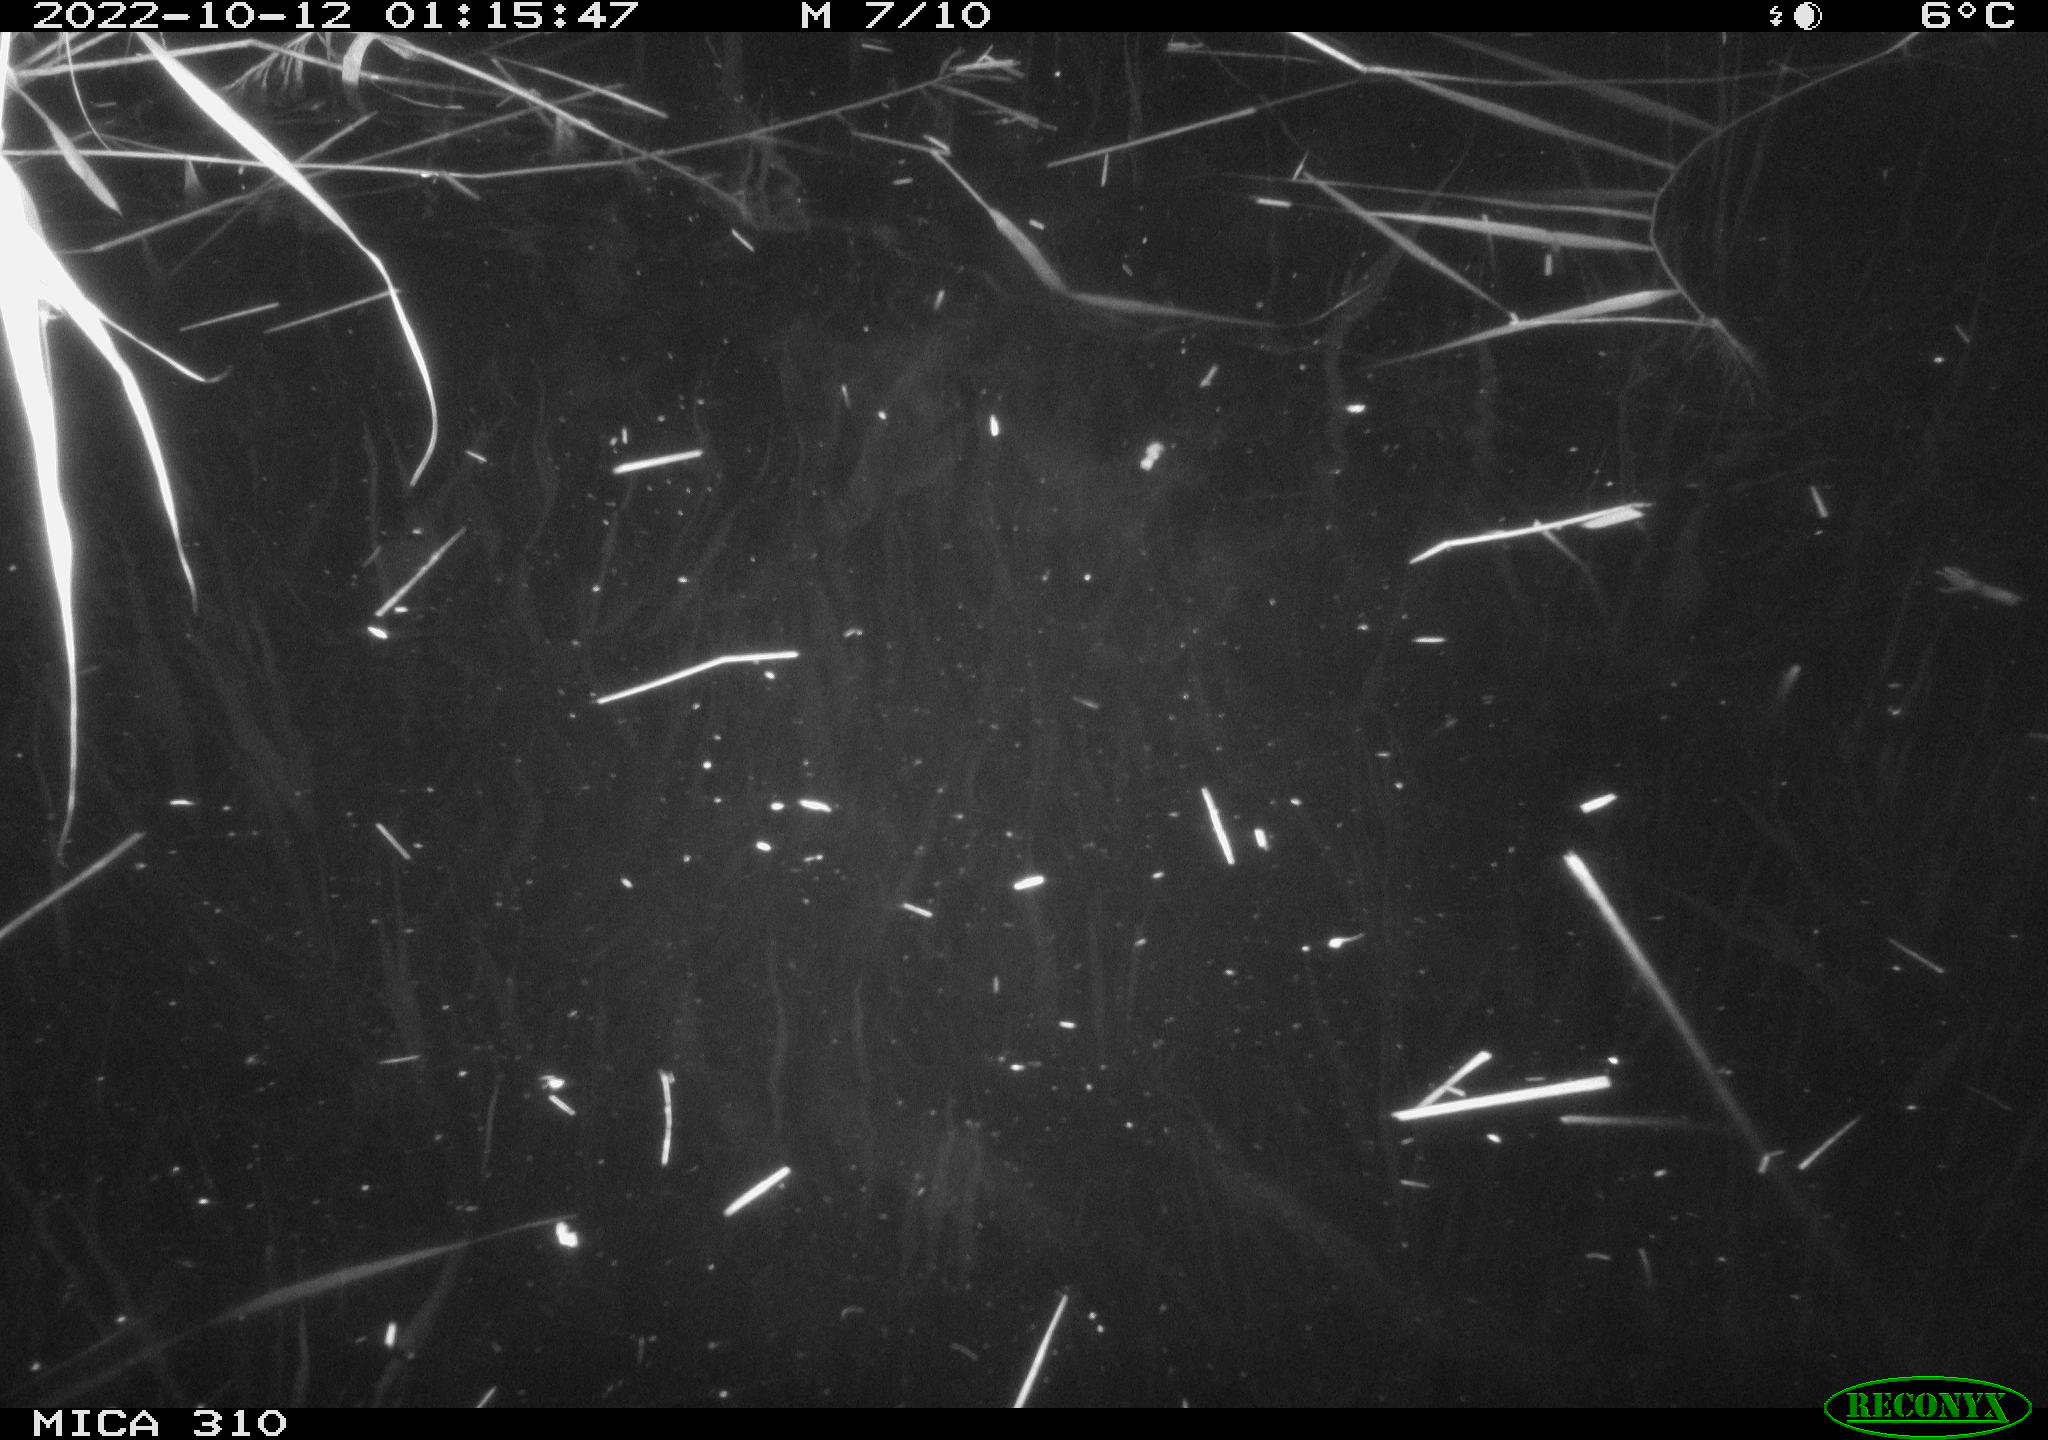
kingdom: Animalia
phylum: Chordata
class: Mammalia
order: Rodentia
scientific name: Rodentia
